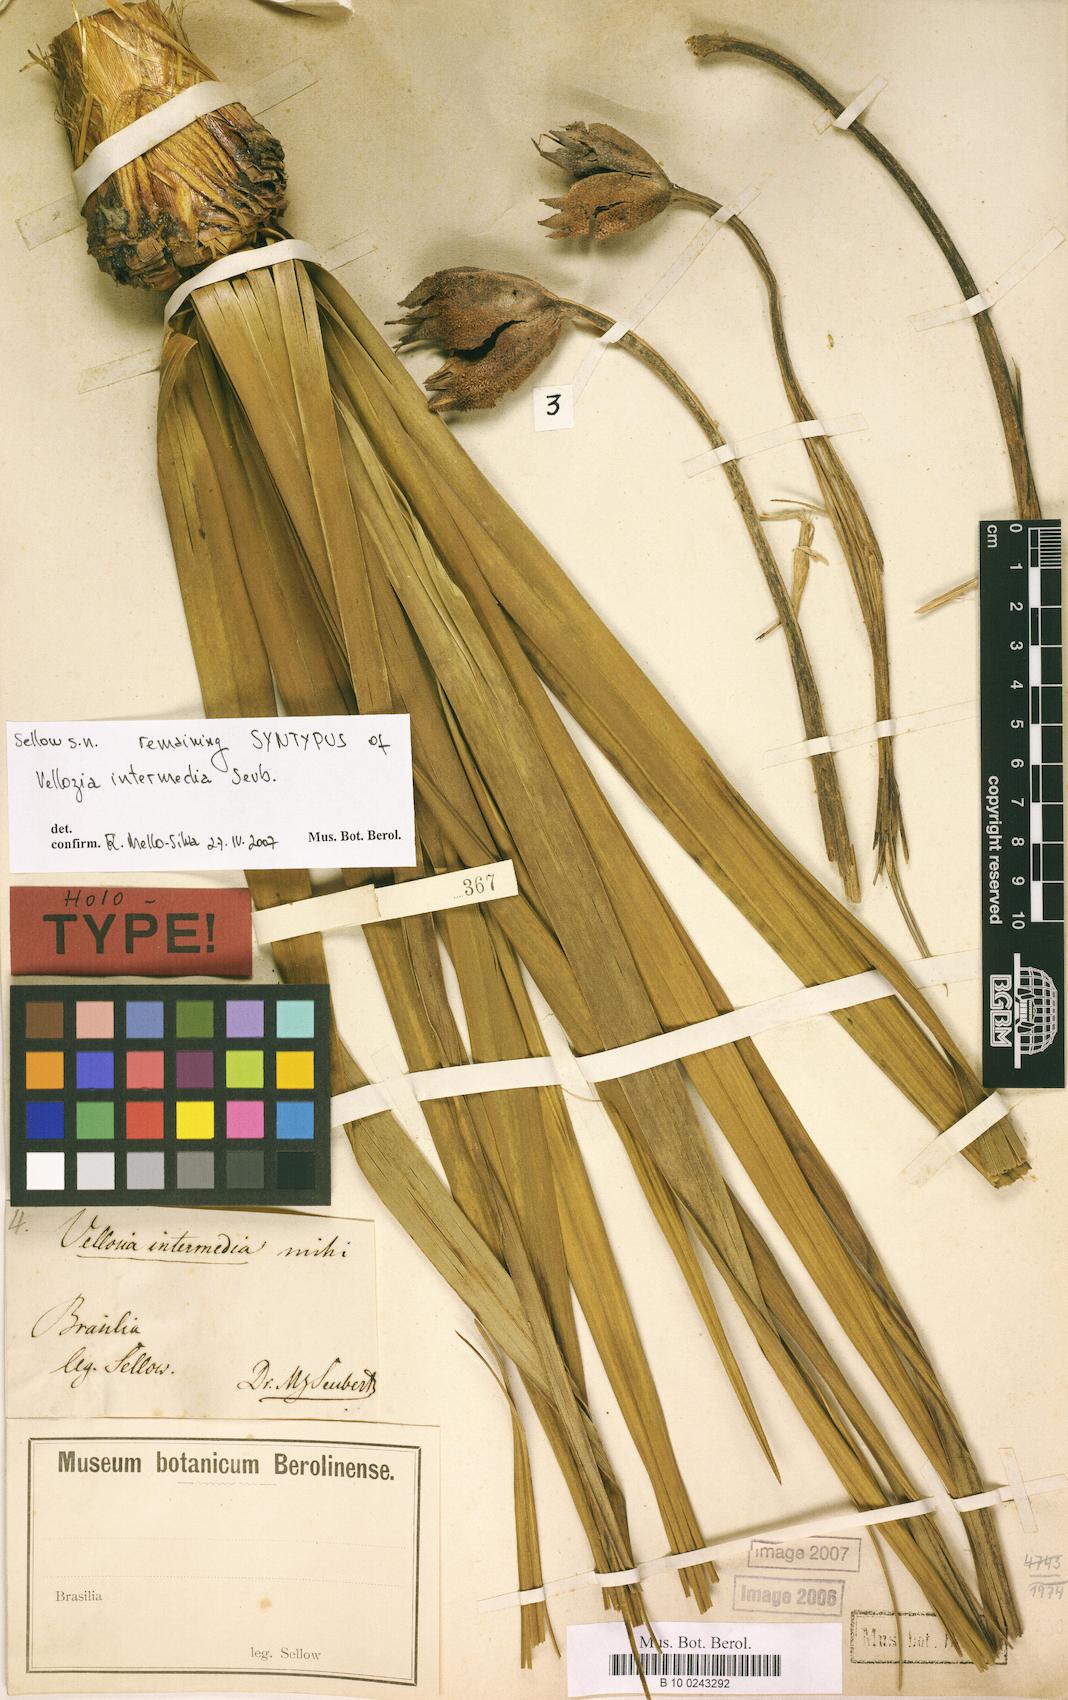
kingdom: Plantae
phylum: Tracheophyta
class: Liliopsida
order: Pandanales
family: Velloziaceae
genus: Vellozia
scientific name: Vellozia intermedia
